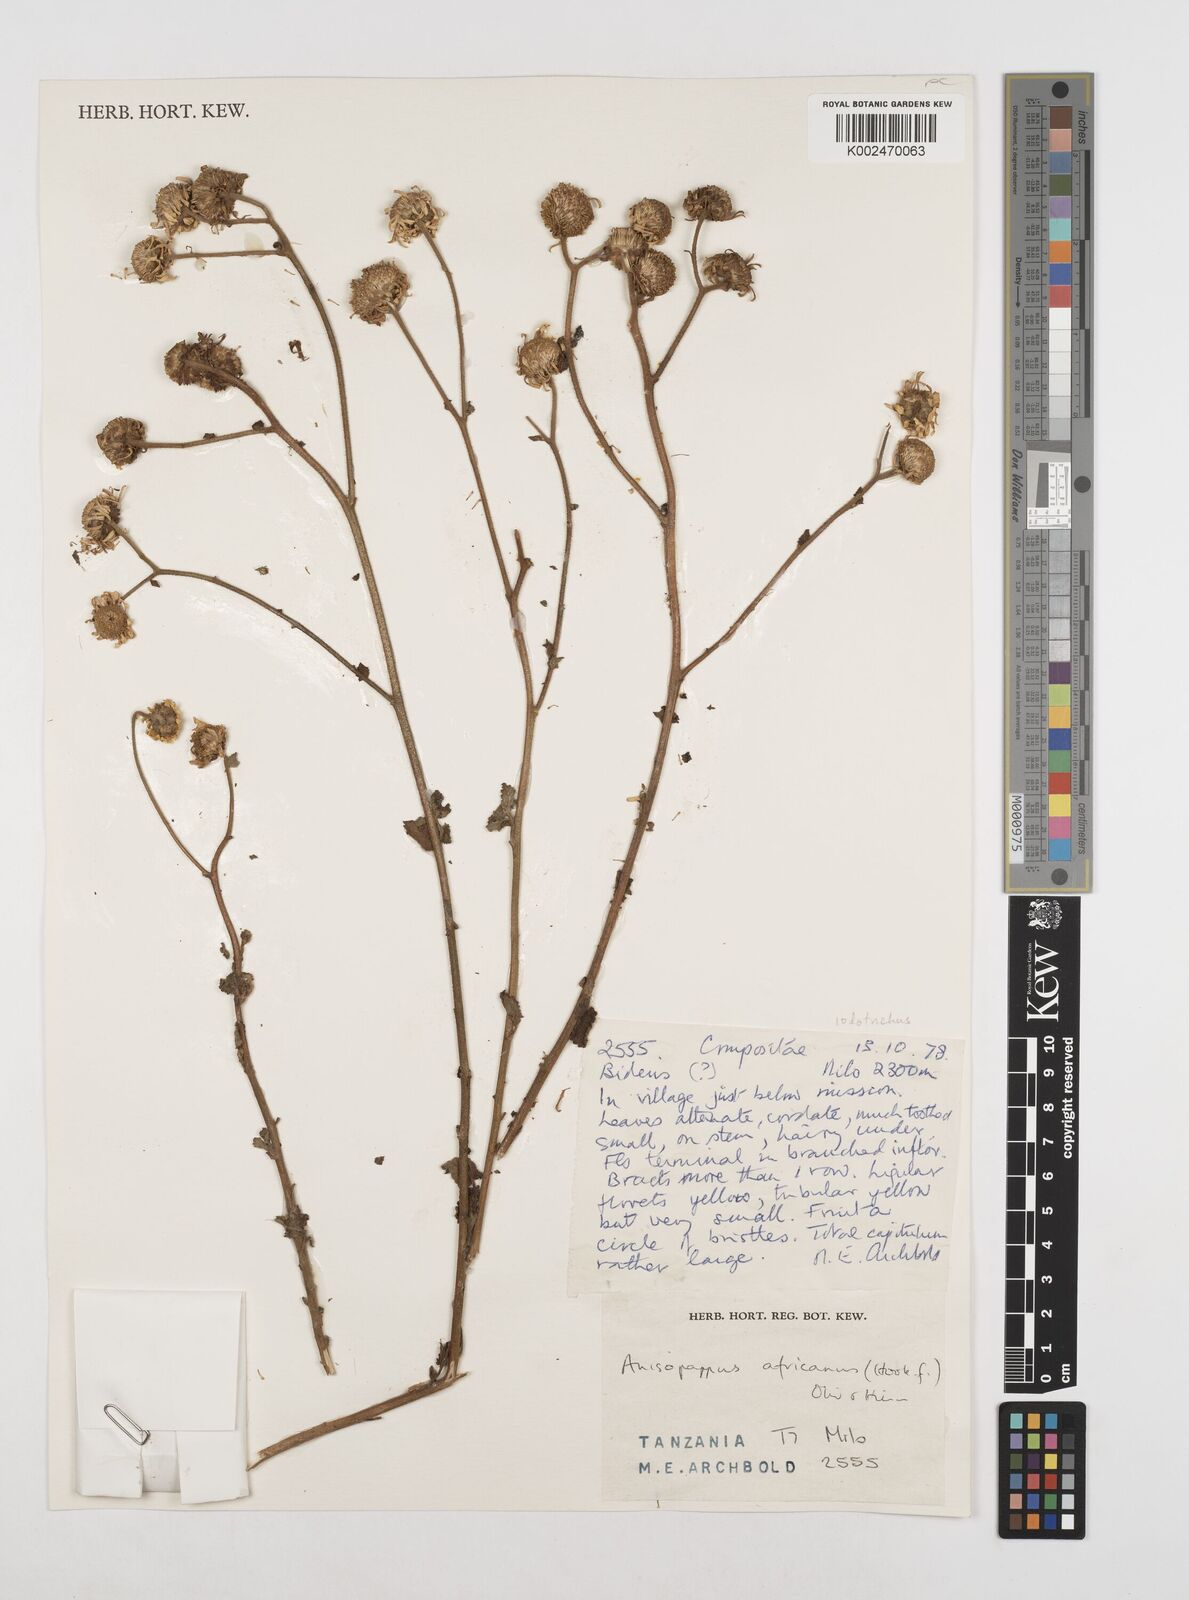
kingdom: Plantae
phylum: Tracheophyta
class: Magnoliopsida
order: Asterales
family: Asteraceae
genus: Anisopappus
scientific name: Anisopappus buchwaldii
